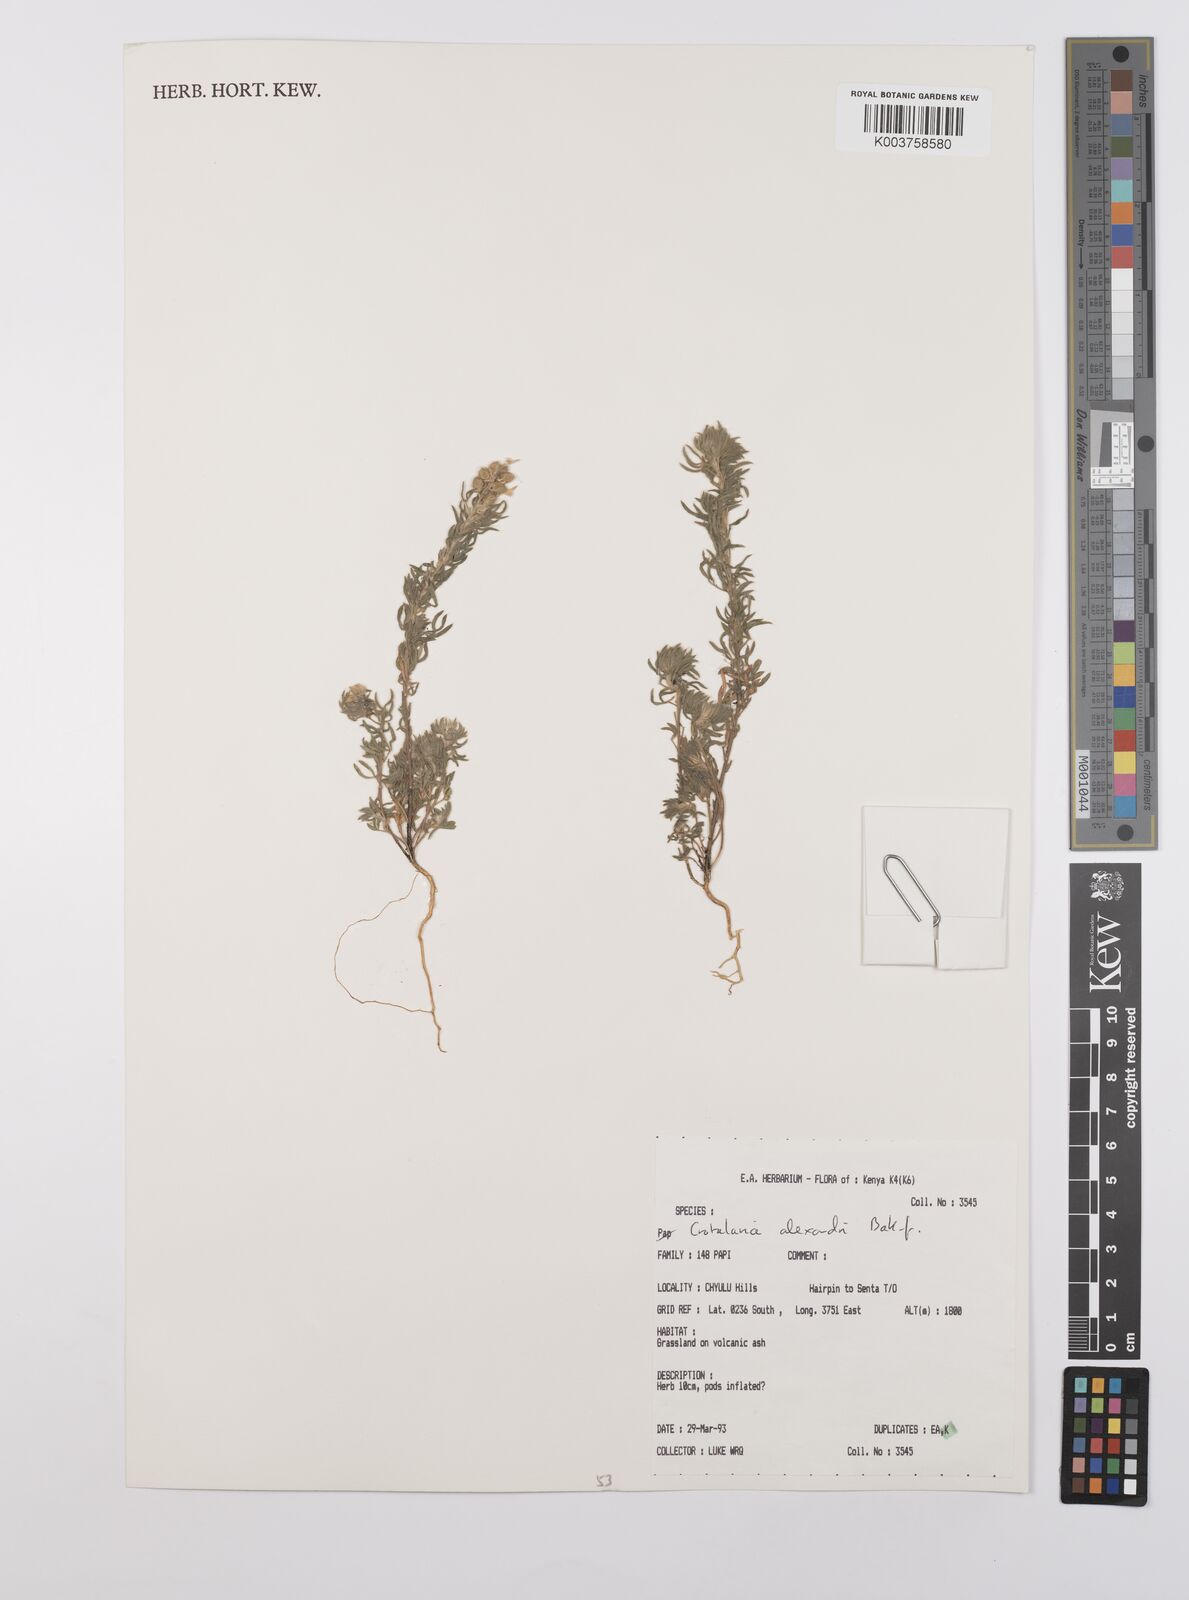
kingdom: Plantae
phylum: Tracheophyta
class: Magnoliopsida
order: Fabales
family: Fabaceae
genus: Crotalaria
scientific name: Crotalaria alexandri
